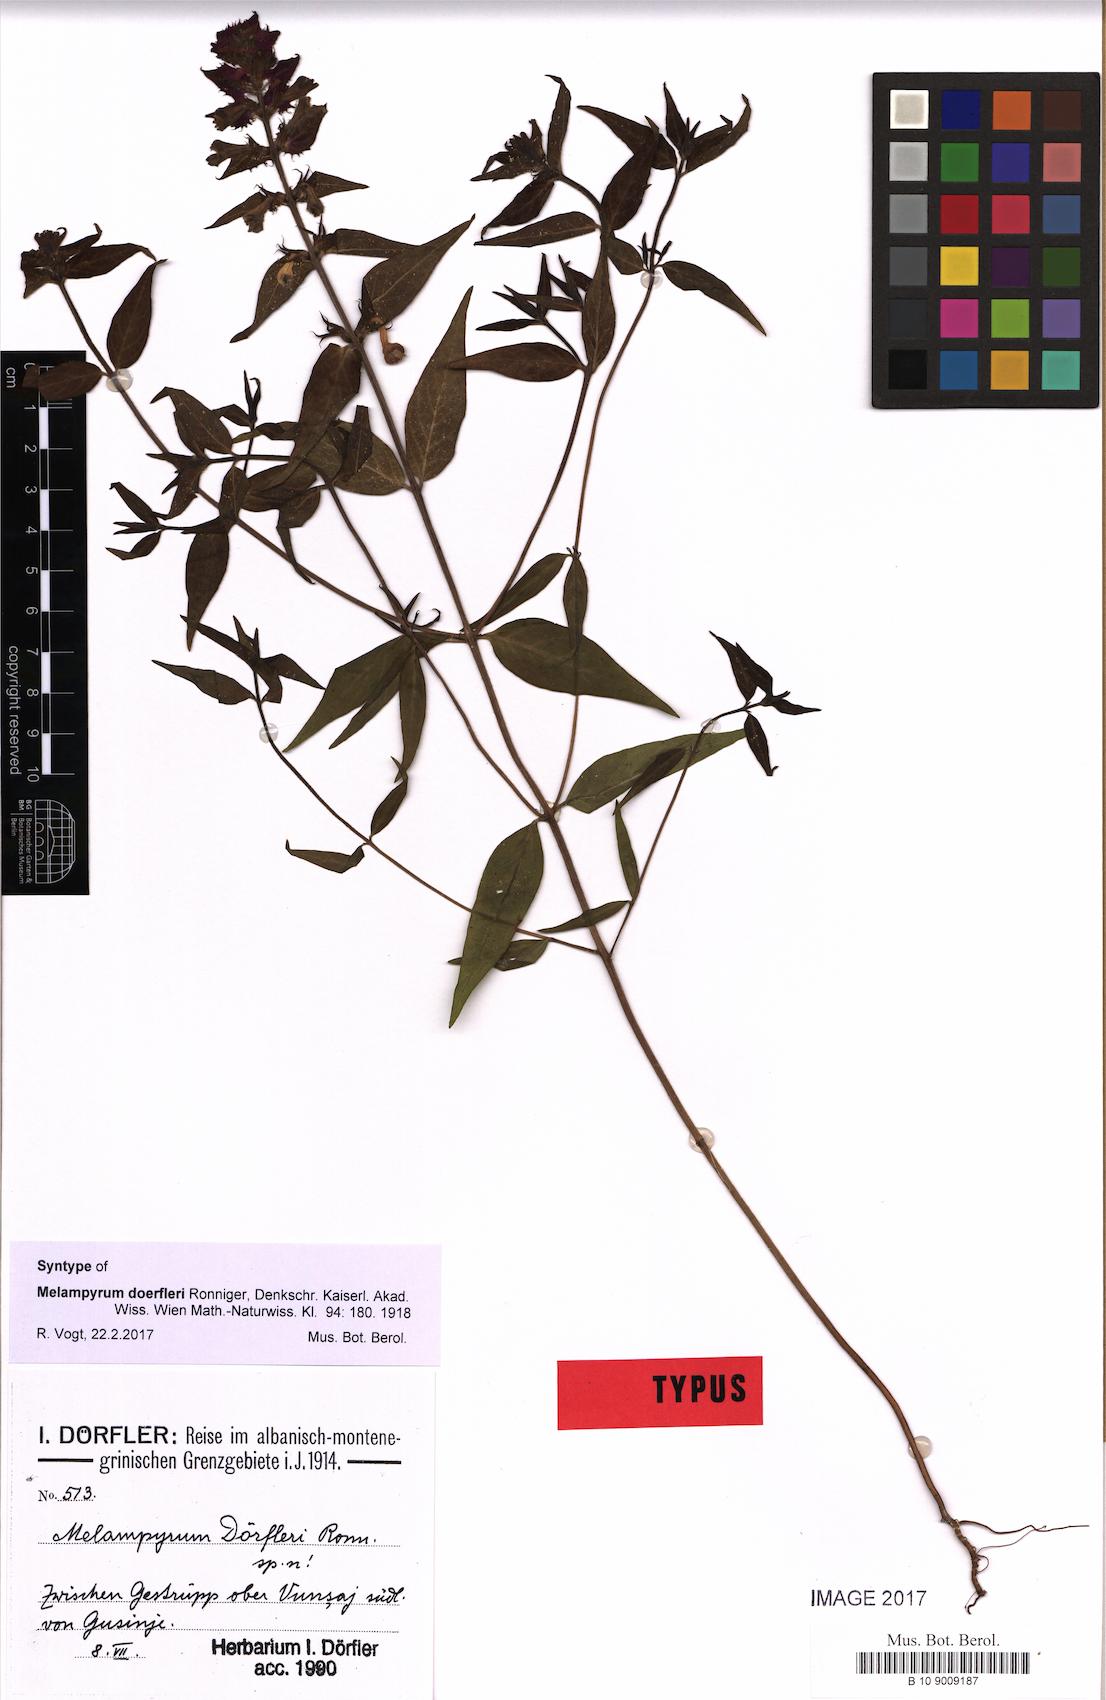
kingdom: Plantae
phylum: Tracheophyta
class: Magnoliopsida
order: Lamiales
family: Orobanchaceae
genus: Melampyrum
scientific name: Melampyrum doerfleri
